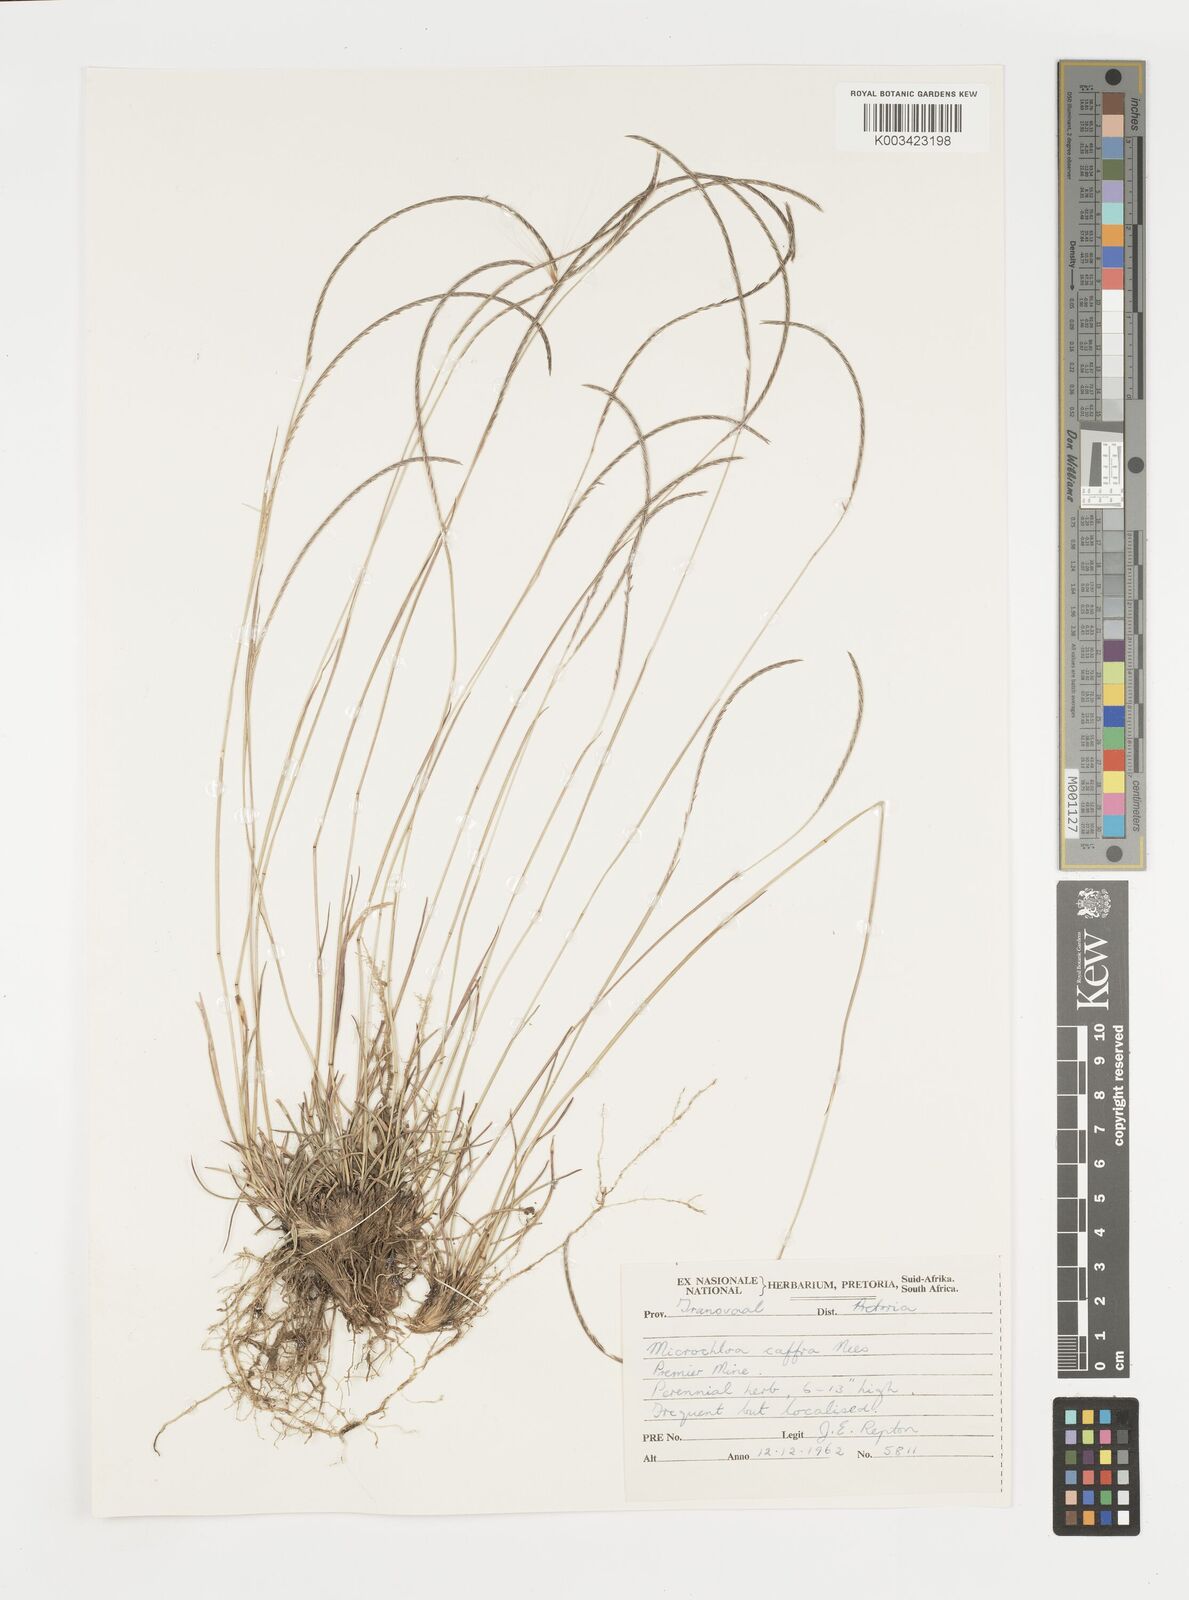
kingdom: Plantae
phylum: Tracheophyta
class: Liliopsida
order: Poales
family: Poaceae
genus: Microchloa
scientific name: Microchloa caffra
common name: Pincushion grass
